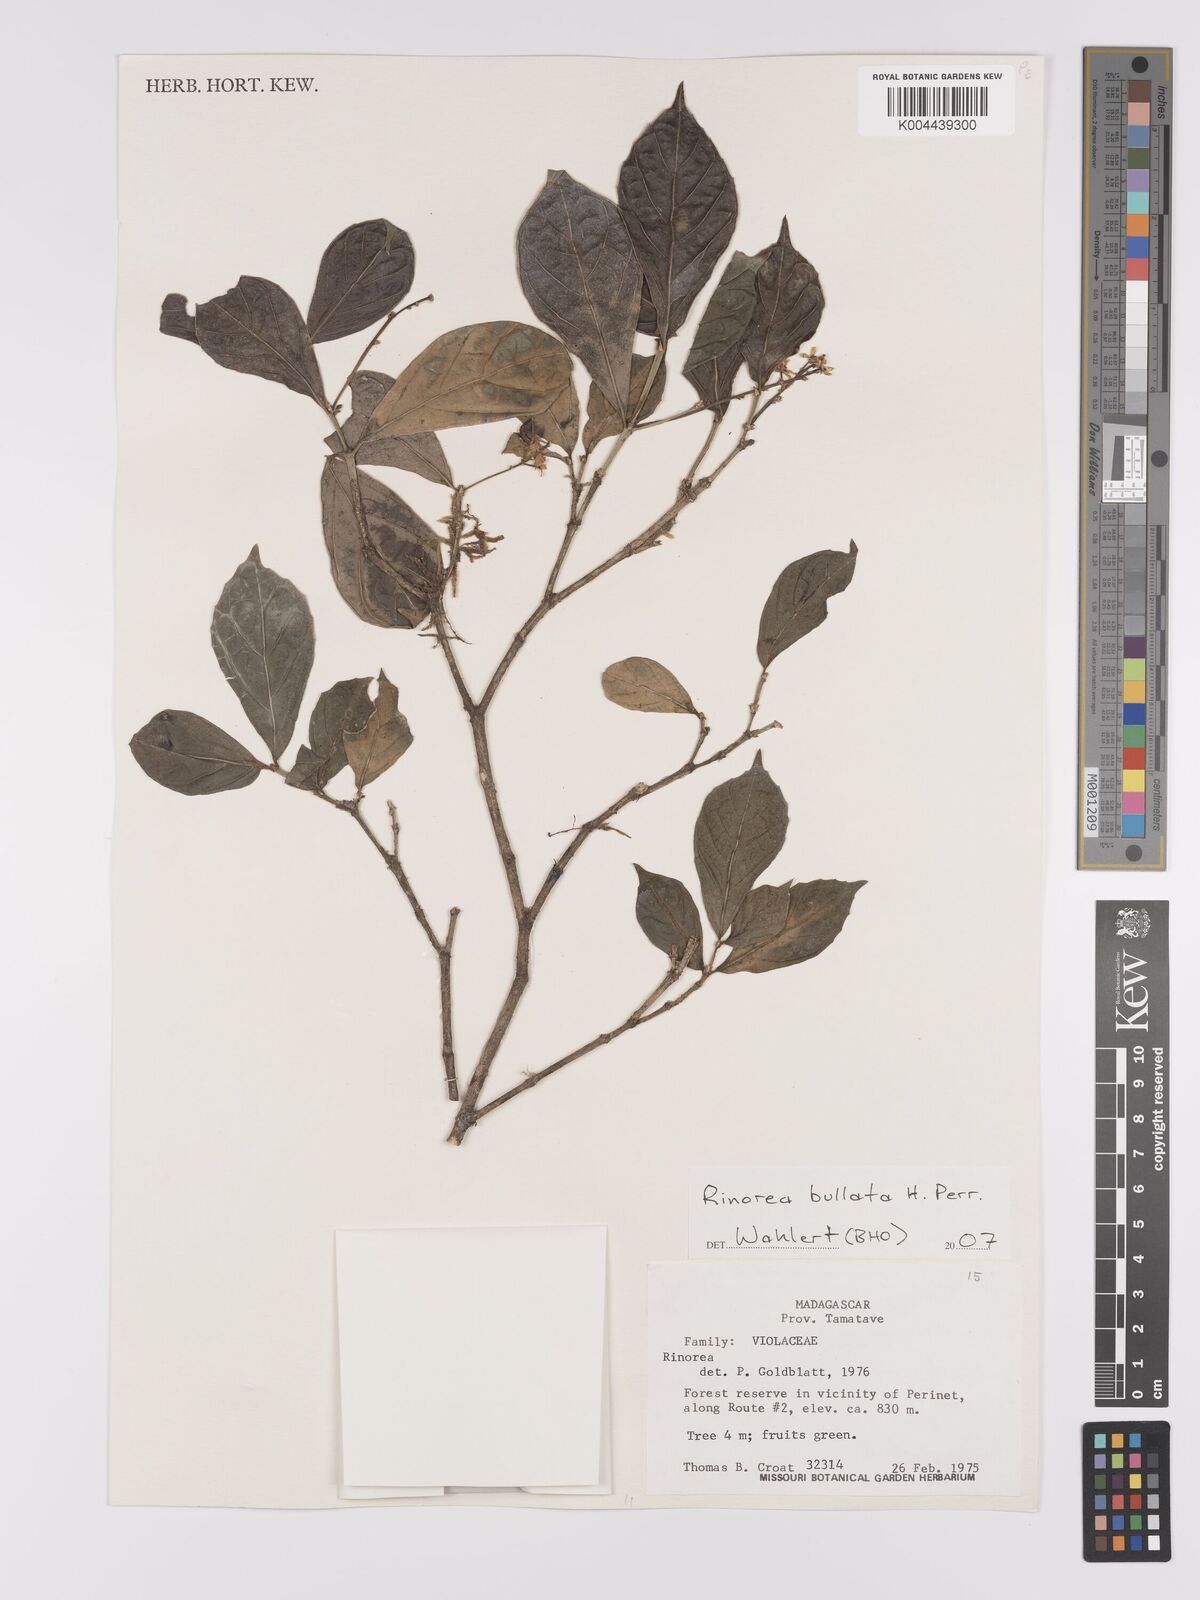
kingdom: Plantae
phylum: Tracheophyta
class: Magnoliopsida
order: Malpighiales
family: Violaceae
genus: Rinorea
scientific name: Rinorea bullata
